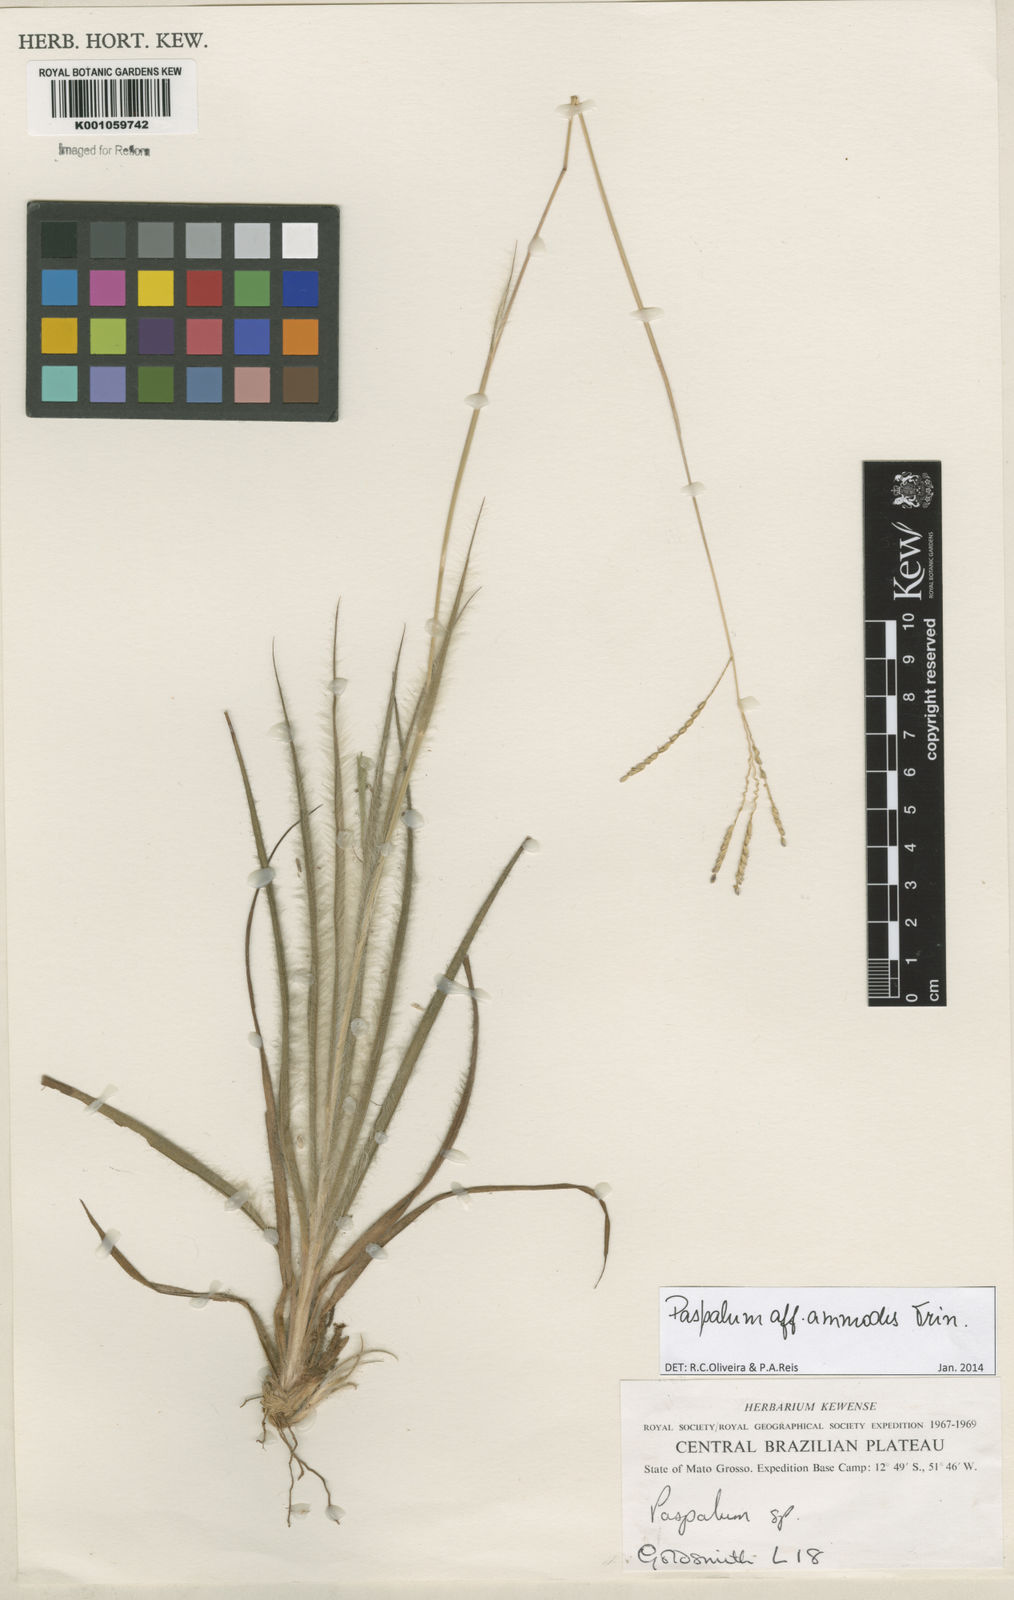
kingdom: Plantae
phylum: Tracheophyta
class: Liliopsida
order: Poales
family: Poaceae
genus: Paspalum
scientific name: Paspalum ammodes
